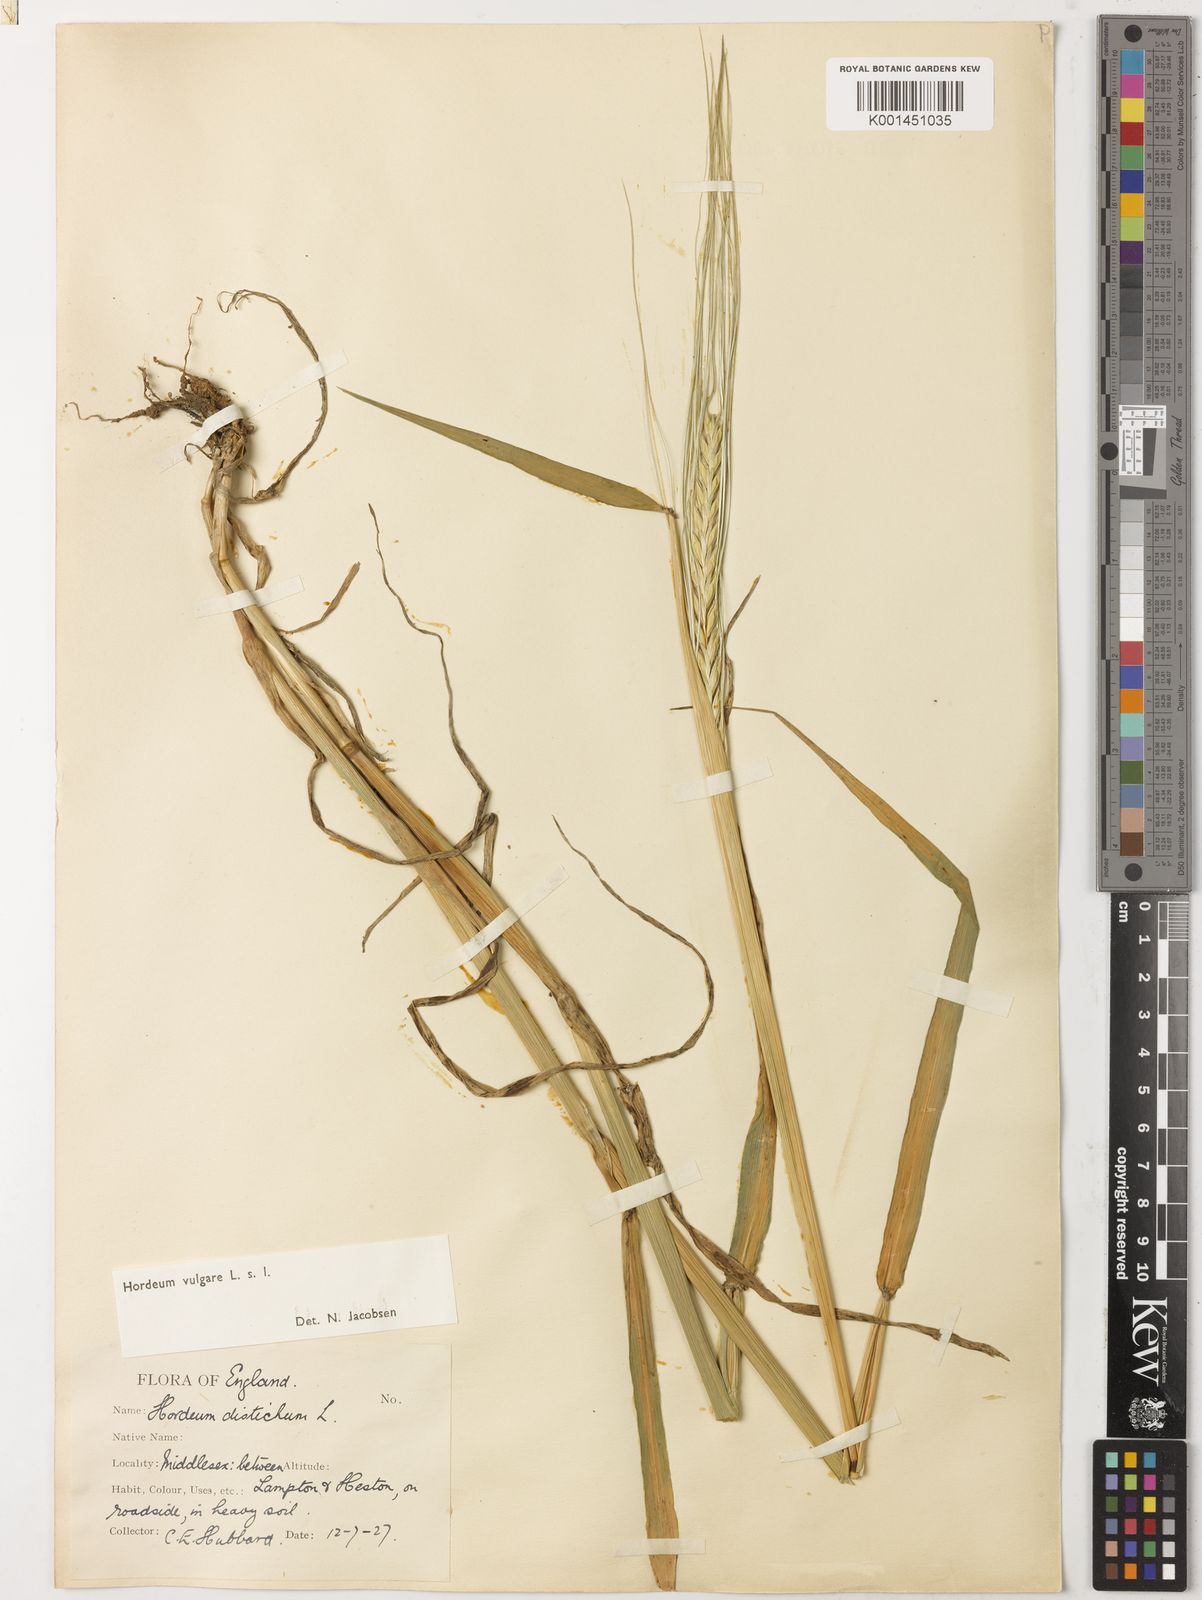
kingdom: Plantae
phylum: Tracheophyta
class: Liliopsida
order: Poales
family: Poaceae
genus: Hordeum
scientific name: Hordeum vulgare
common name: Common barley
